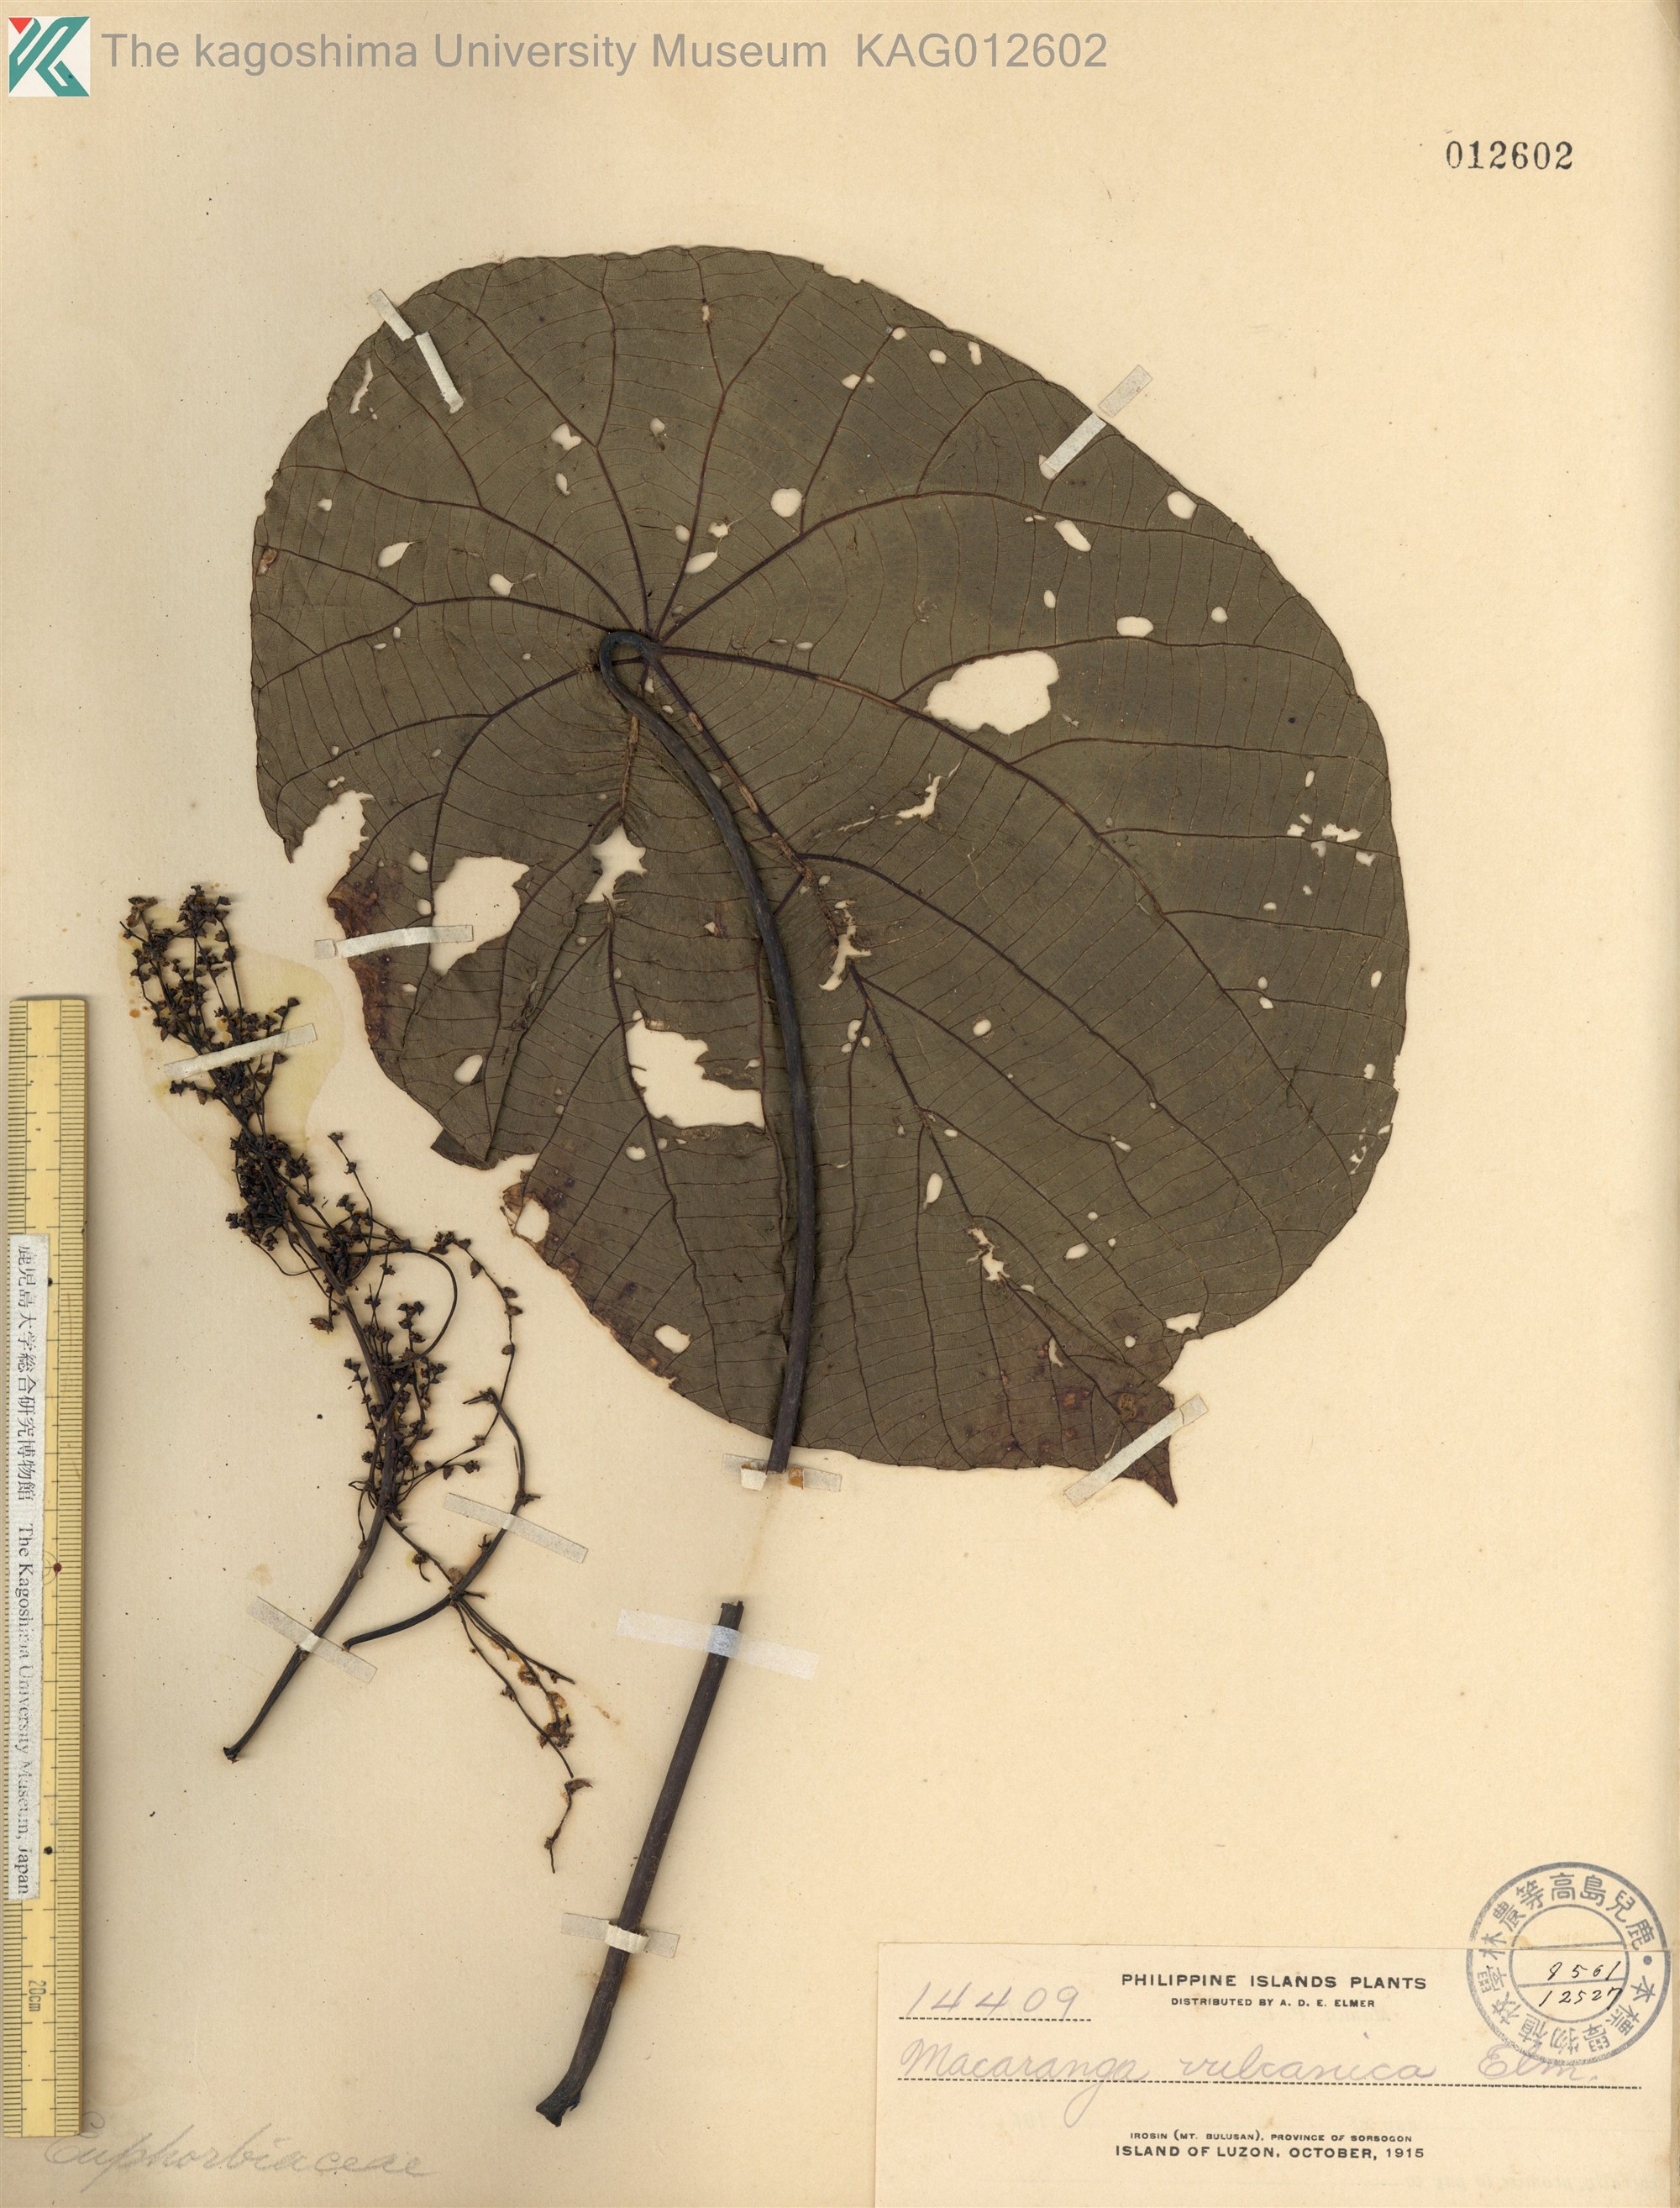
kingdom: Plantae
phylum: Tracheophyta
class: Magnoliopsida
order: Malpighiales
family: Euphorbiaceae
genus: Macaranga
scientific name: Macaranga tanarius
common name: Parasol leaf tree
